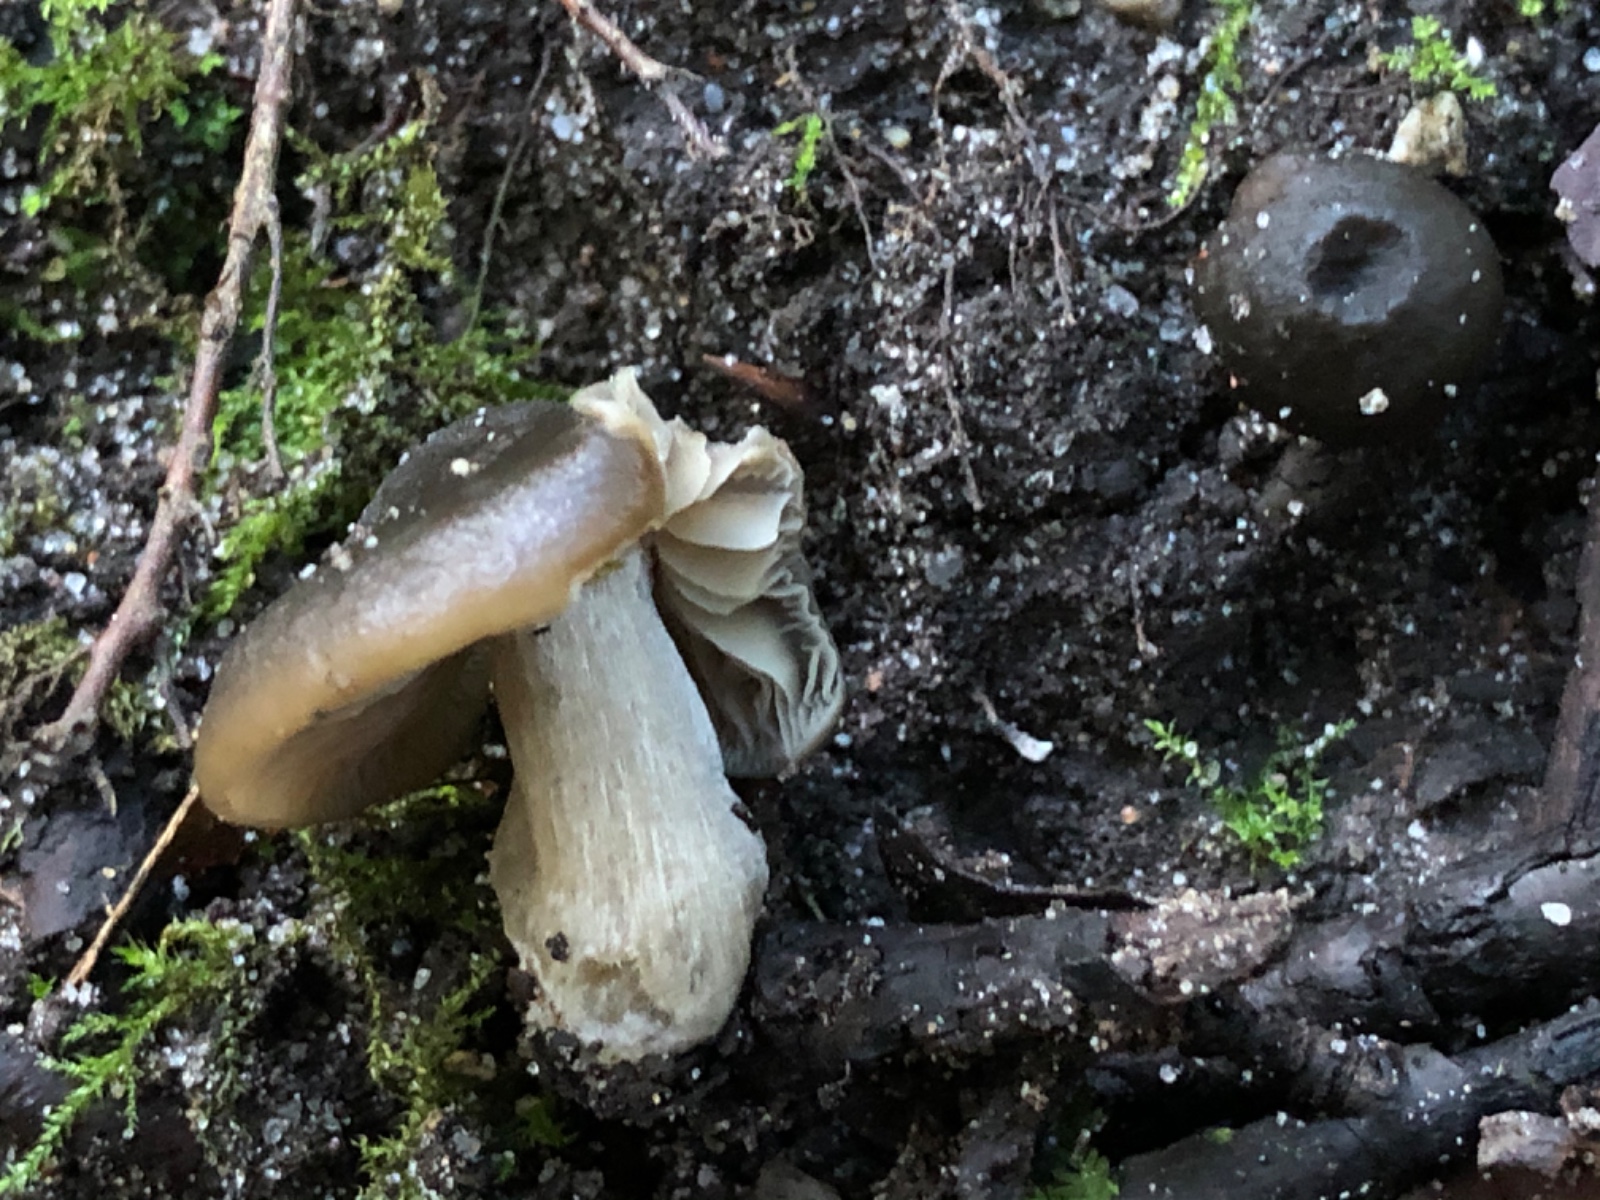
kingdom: Fungi
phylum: Basidiomycota
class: Agaricomycetes
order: Agaricales
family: Entolomataceae
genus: Entoloma
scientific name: Entoloma
